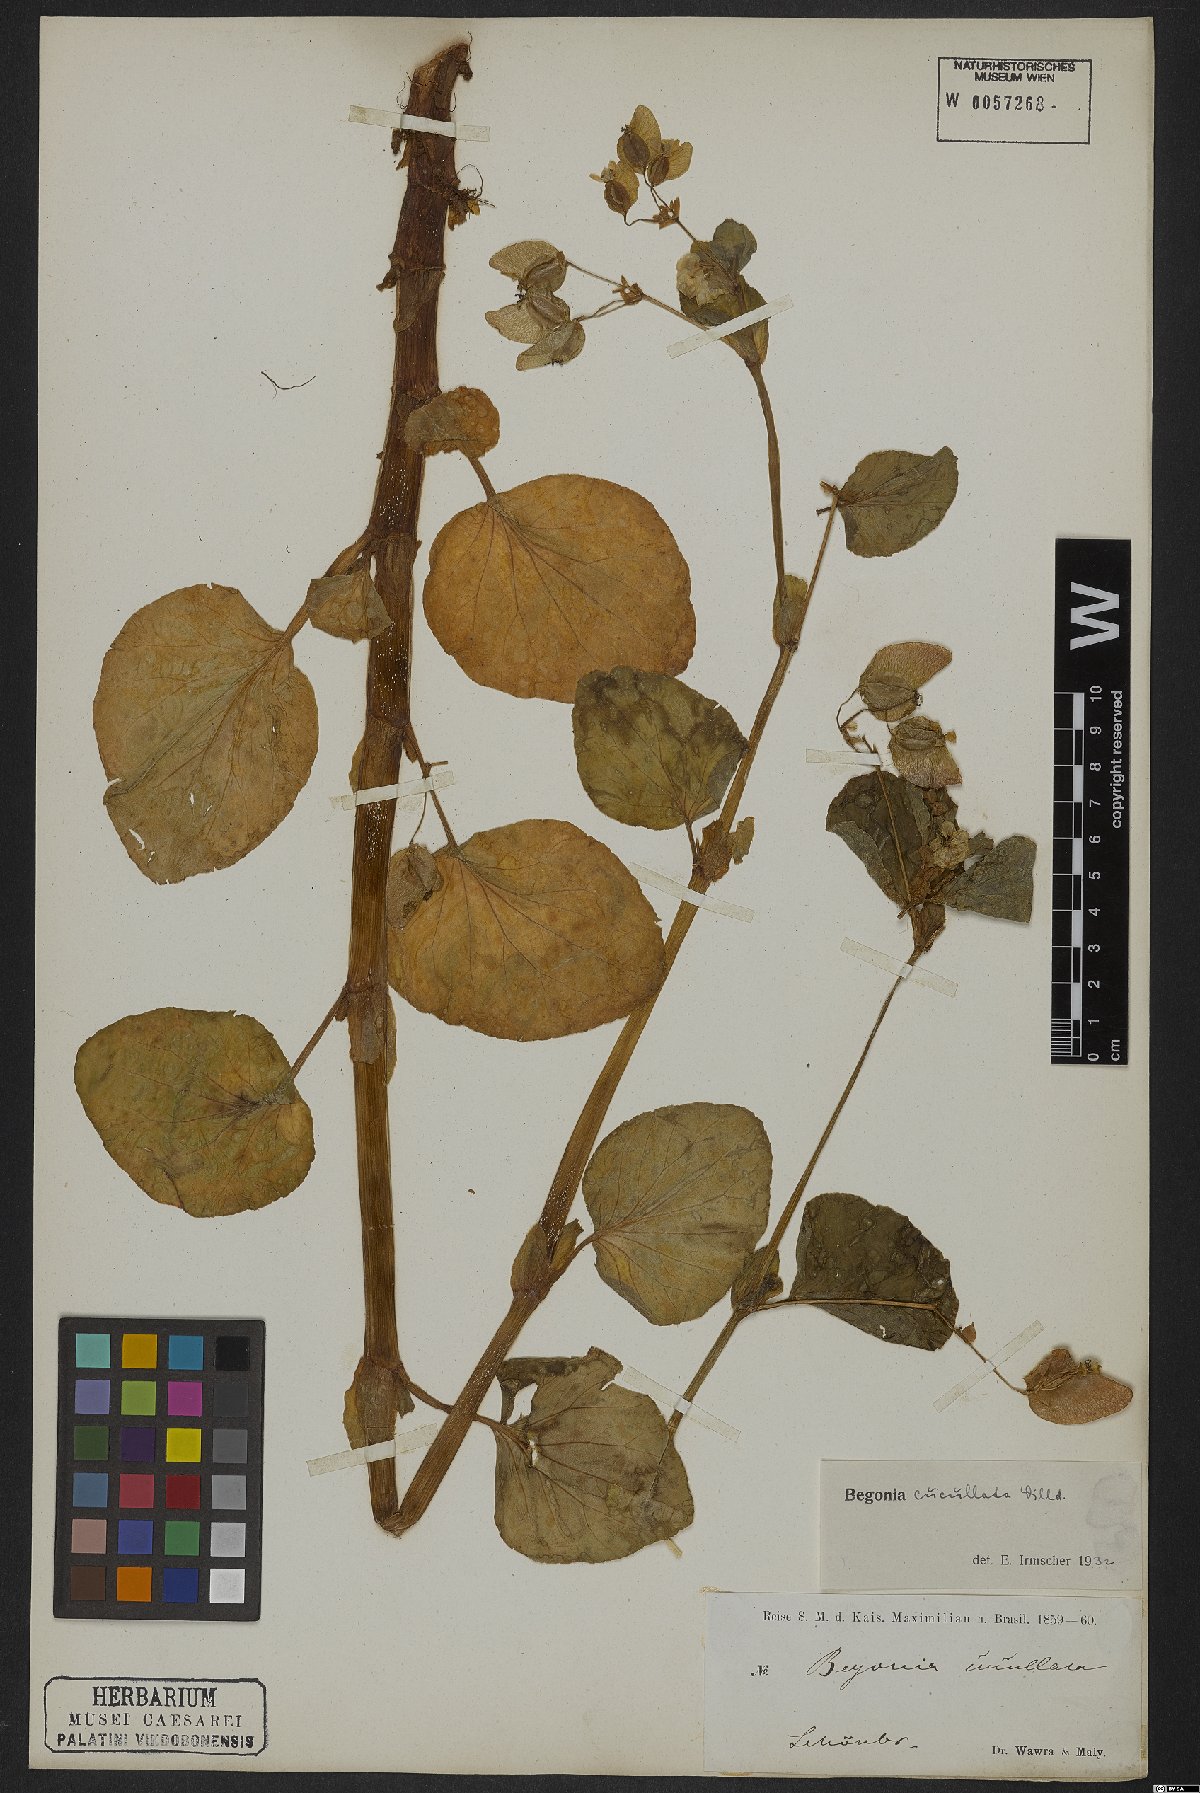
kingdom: Plantae
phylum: Tracheophyta
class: Magnoliopsida
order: Cucurbitales
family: Begoniaceae
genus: Begonia
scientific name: Begonia cucullata
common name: Clubbed begonia
